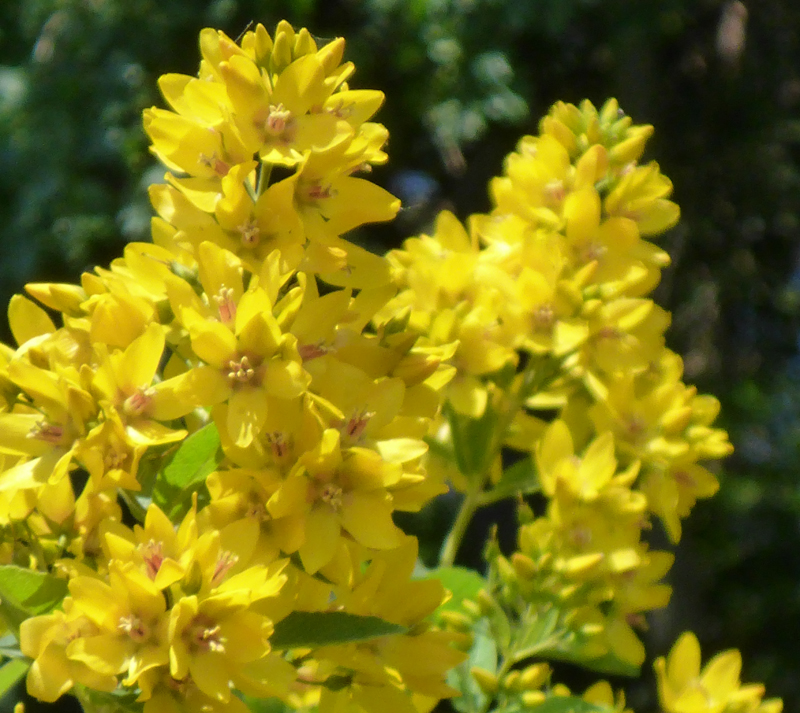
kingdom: Plantae
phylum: Tracheophyta
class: Magnoliopsida
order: Ericales
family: Primulaceae
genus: Lysimachia
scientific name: Lysimachia vulgaris
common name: Yellow loosestrife
